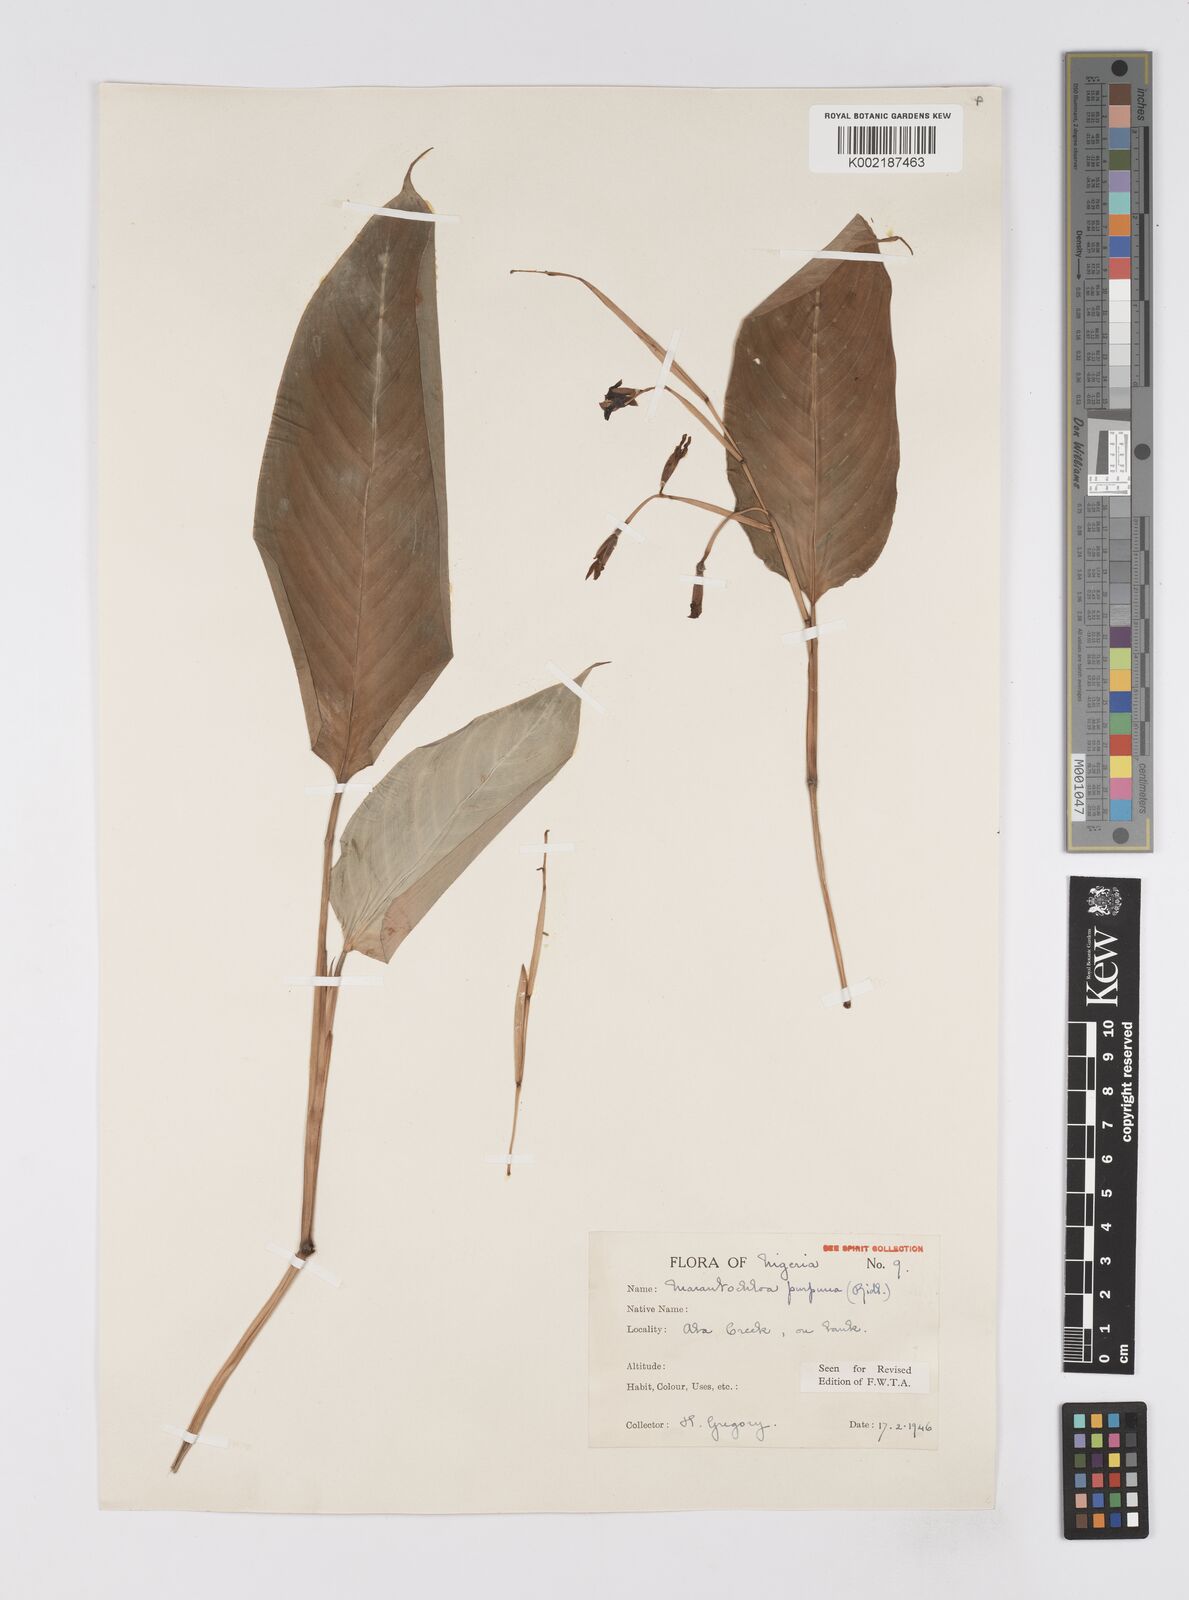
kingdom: Plantae
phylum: Tracheophyta
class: Liliopsida
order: Zingiberales
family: Marantaceae
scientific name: Marantaceae
